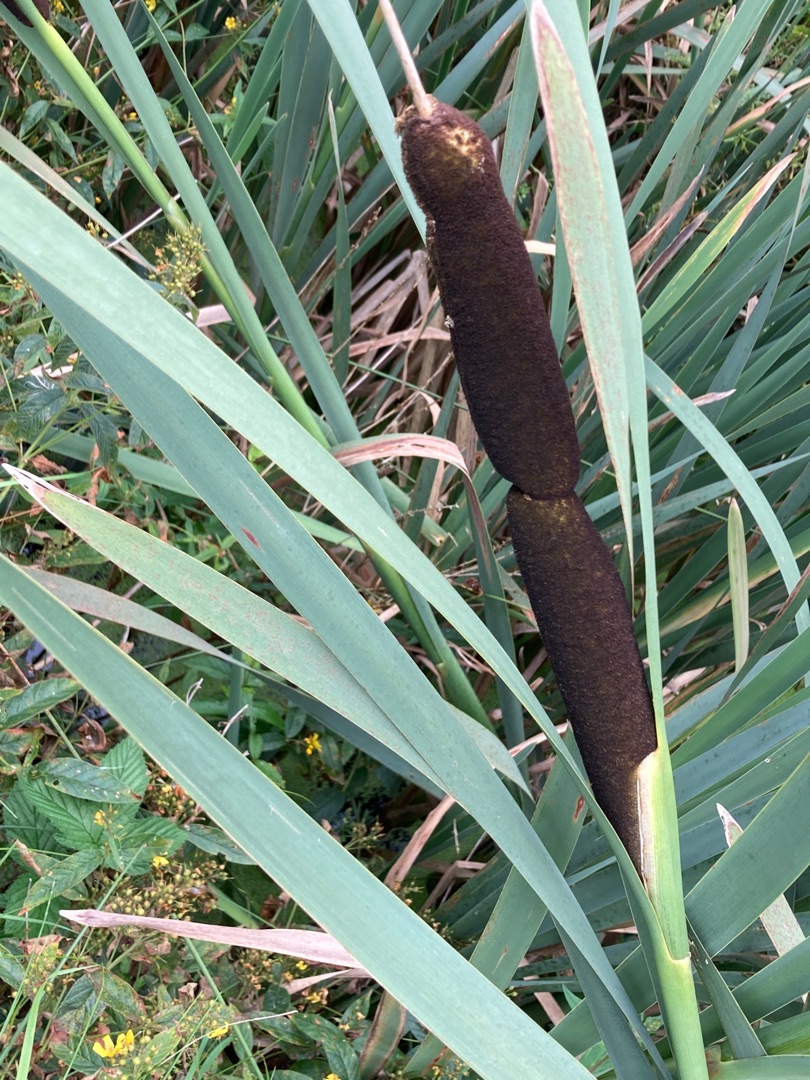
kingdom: Plantae
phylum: Tracheophyta
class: Liliopsida
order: Poales
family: Typhaceae
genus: Typha
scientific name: Typha latifolia
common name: Bredbladet dunhammer
